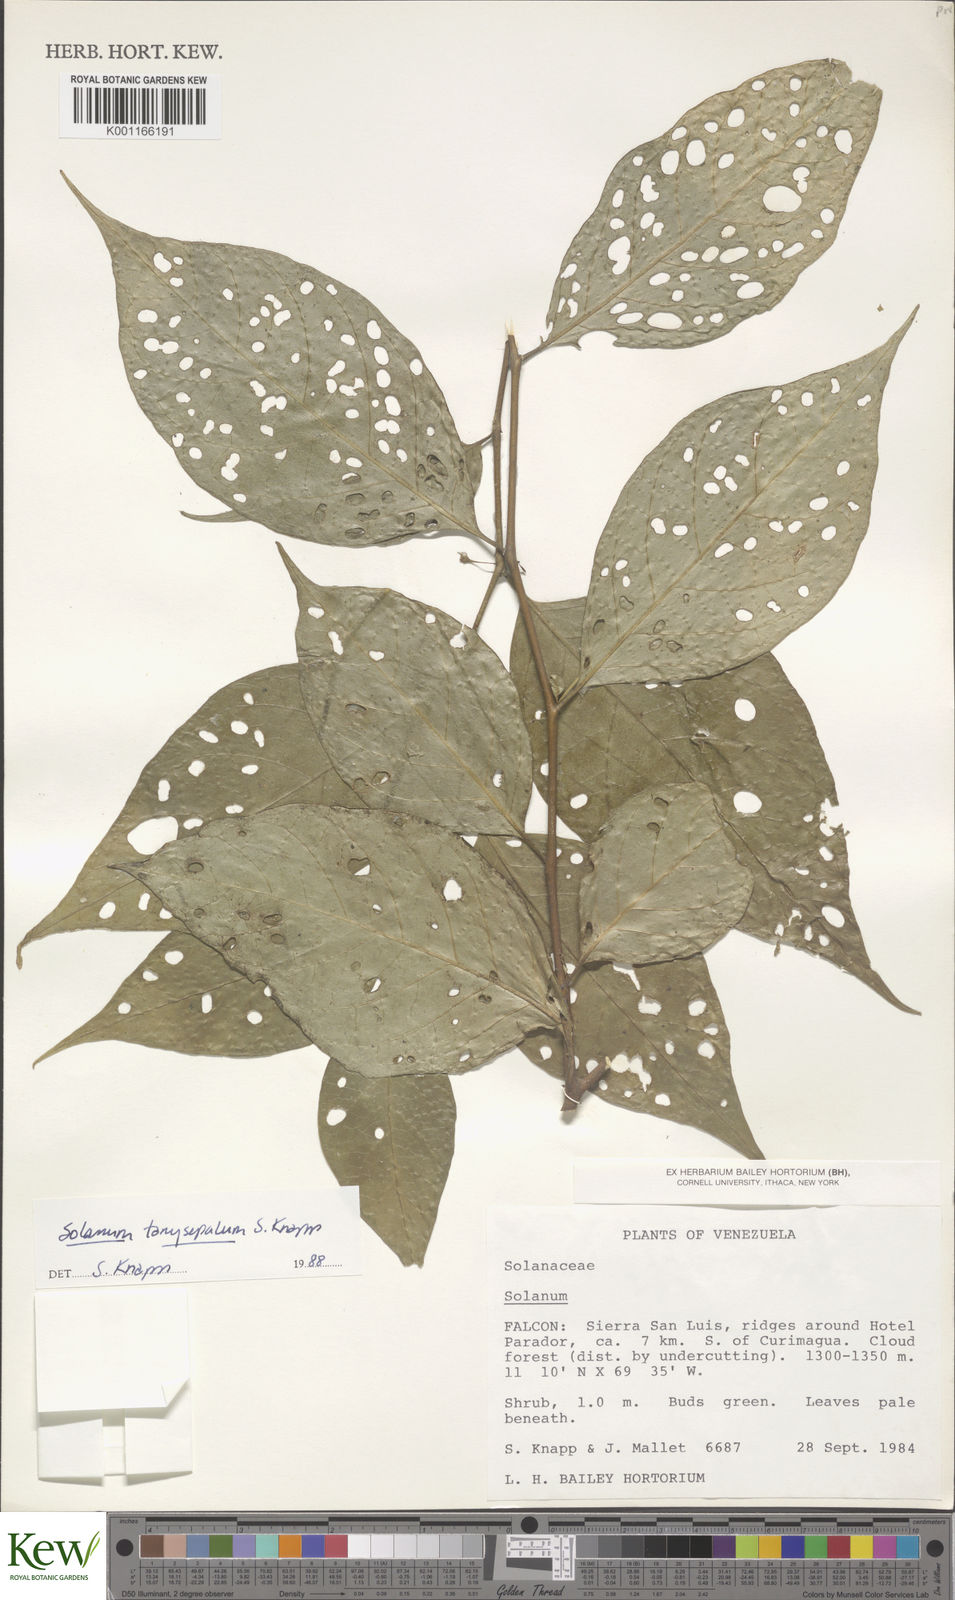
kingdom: Plantae
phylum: Tracheophyta
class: Magnoliopsida
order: Solanales
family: Solanaceae
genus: Solanum
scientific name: Solanum tanysepalum
